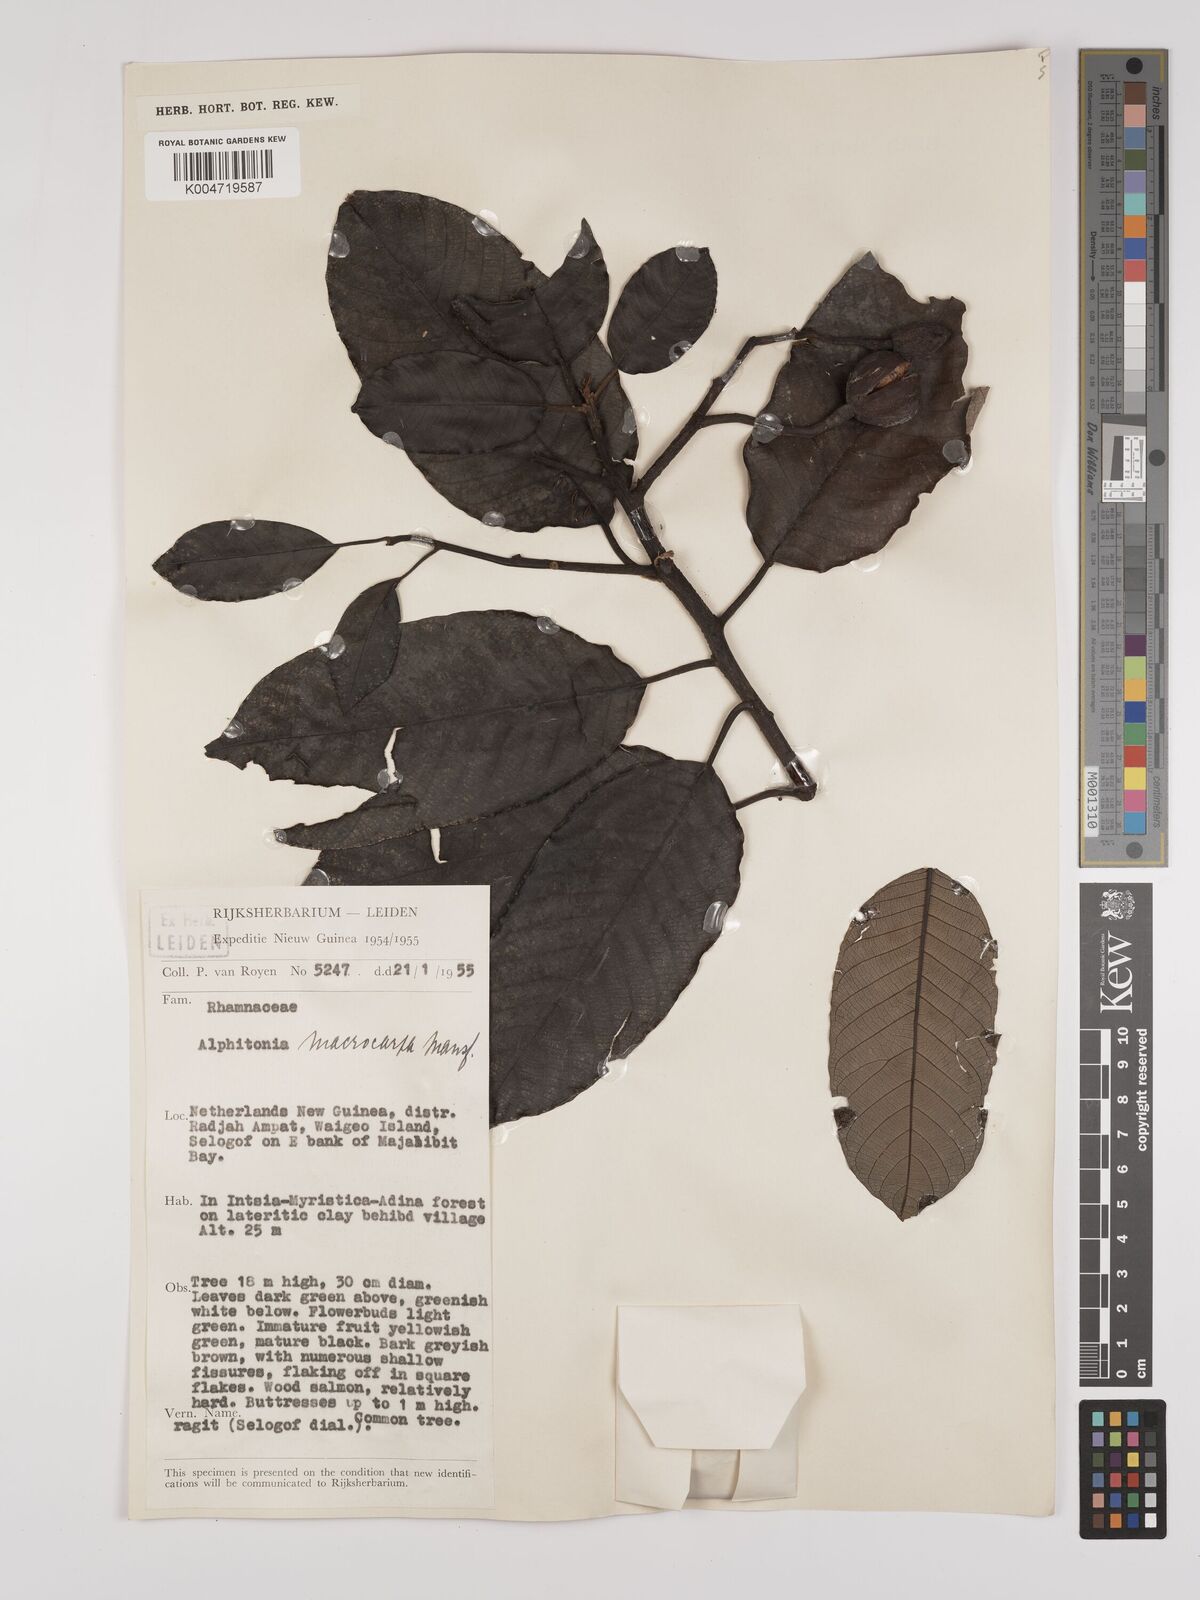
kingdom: Plantae
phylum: Tracheophyta
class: Magnoliopsida
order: Rosales
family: Rhamnaceae
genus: Alphitonia
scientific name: Alphitonia macrocarpa
